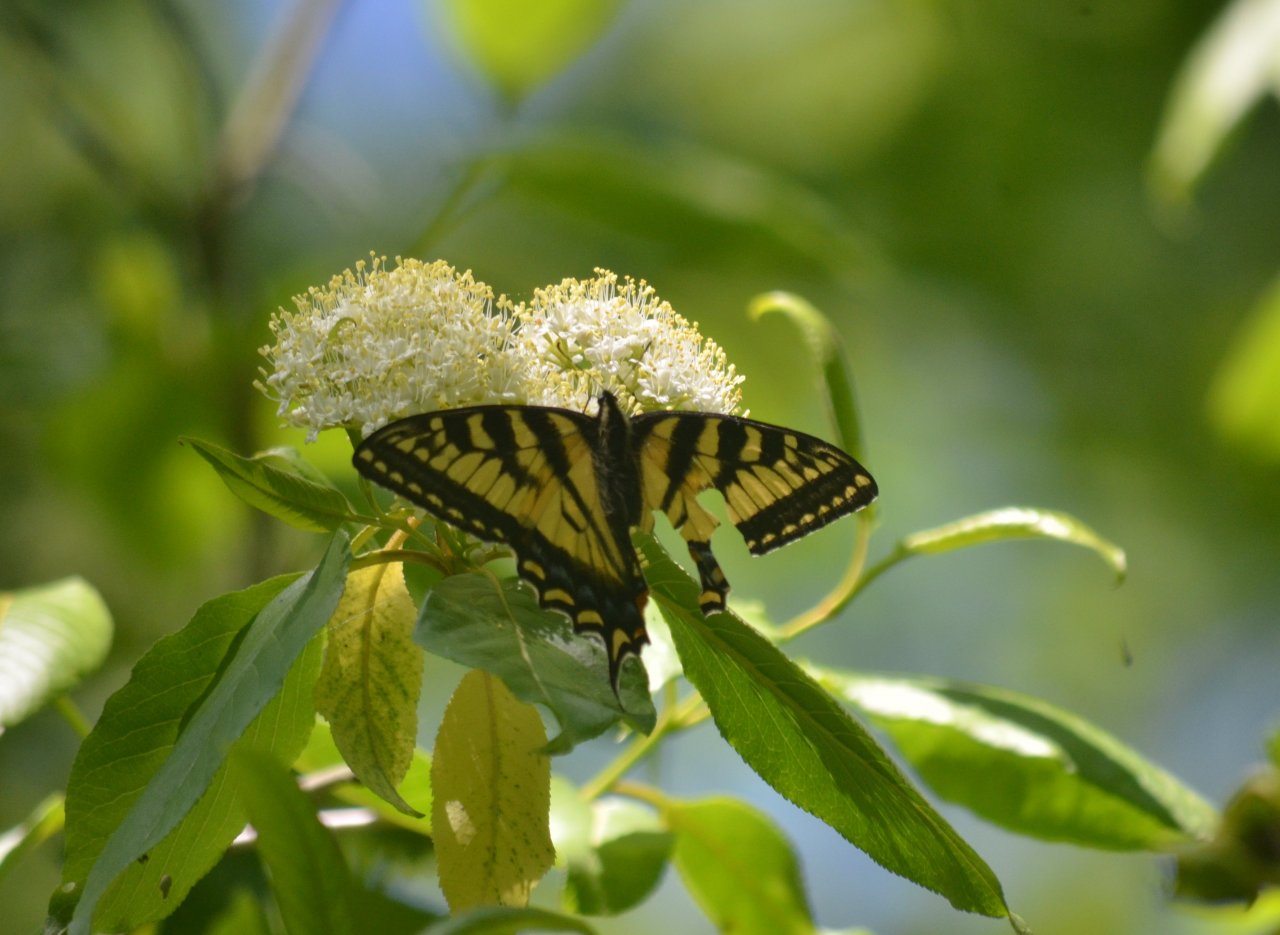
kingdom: Animalia
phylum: Arthropoda
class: Insecta
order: Lepidoptera
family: Papilionidae
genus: Pterourus
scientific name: Pterourus canadensis
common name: Canadian Tiger Swallowtail
